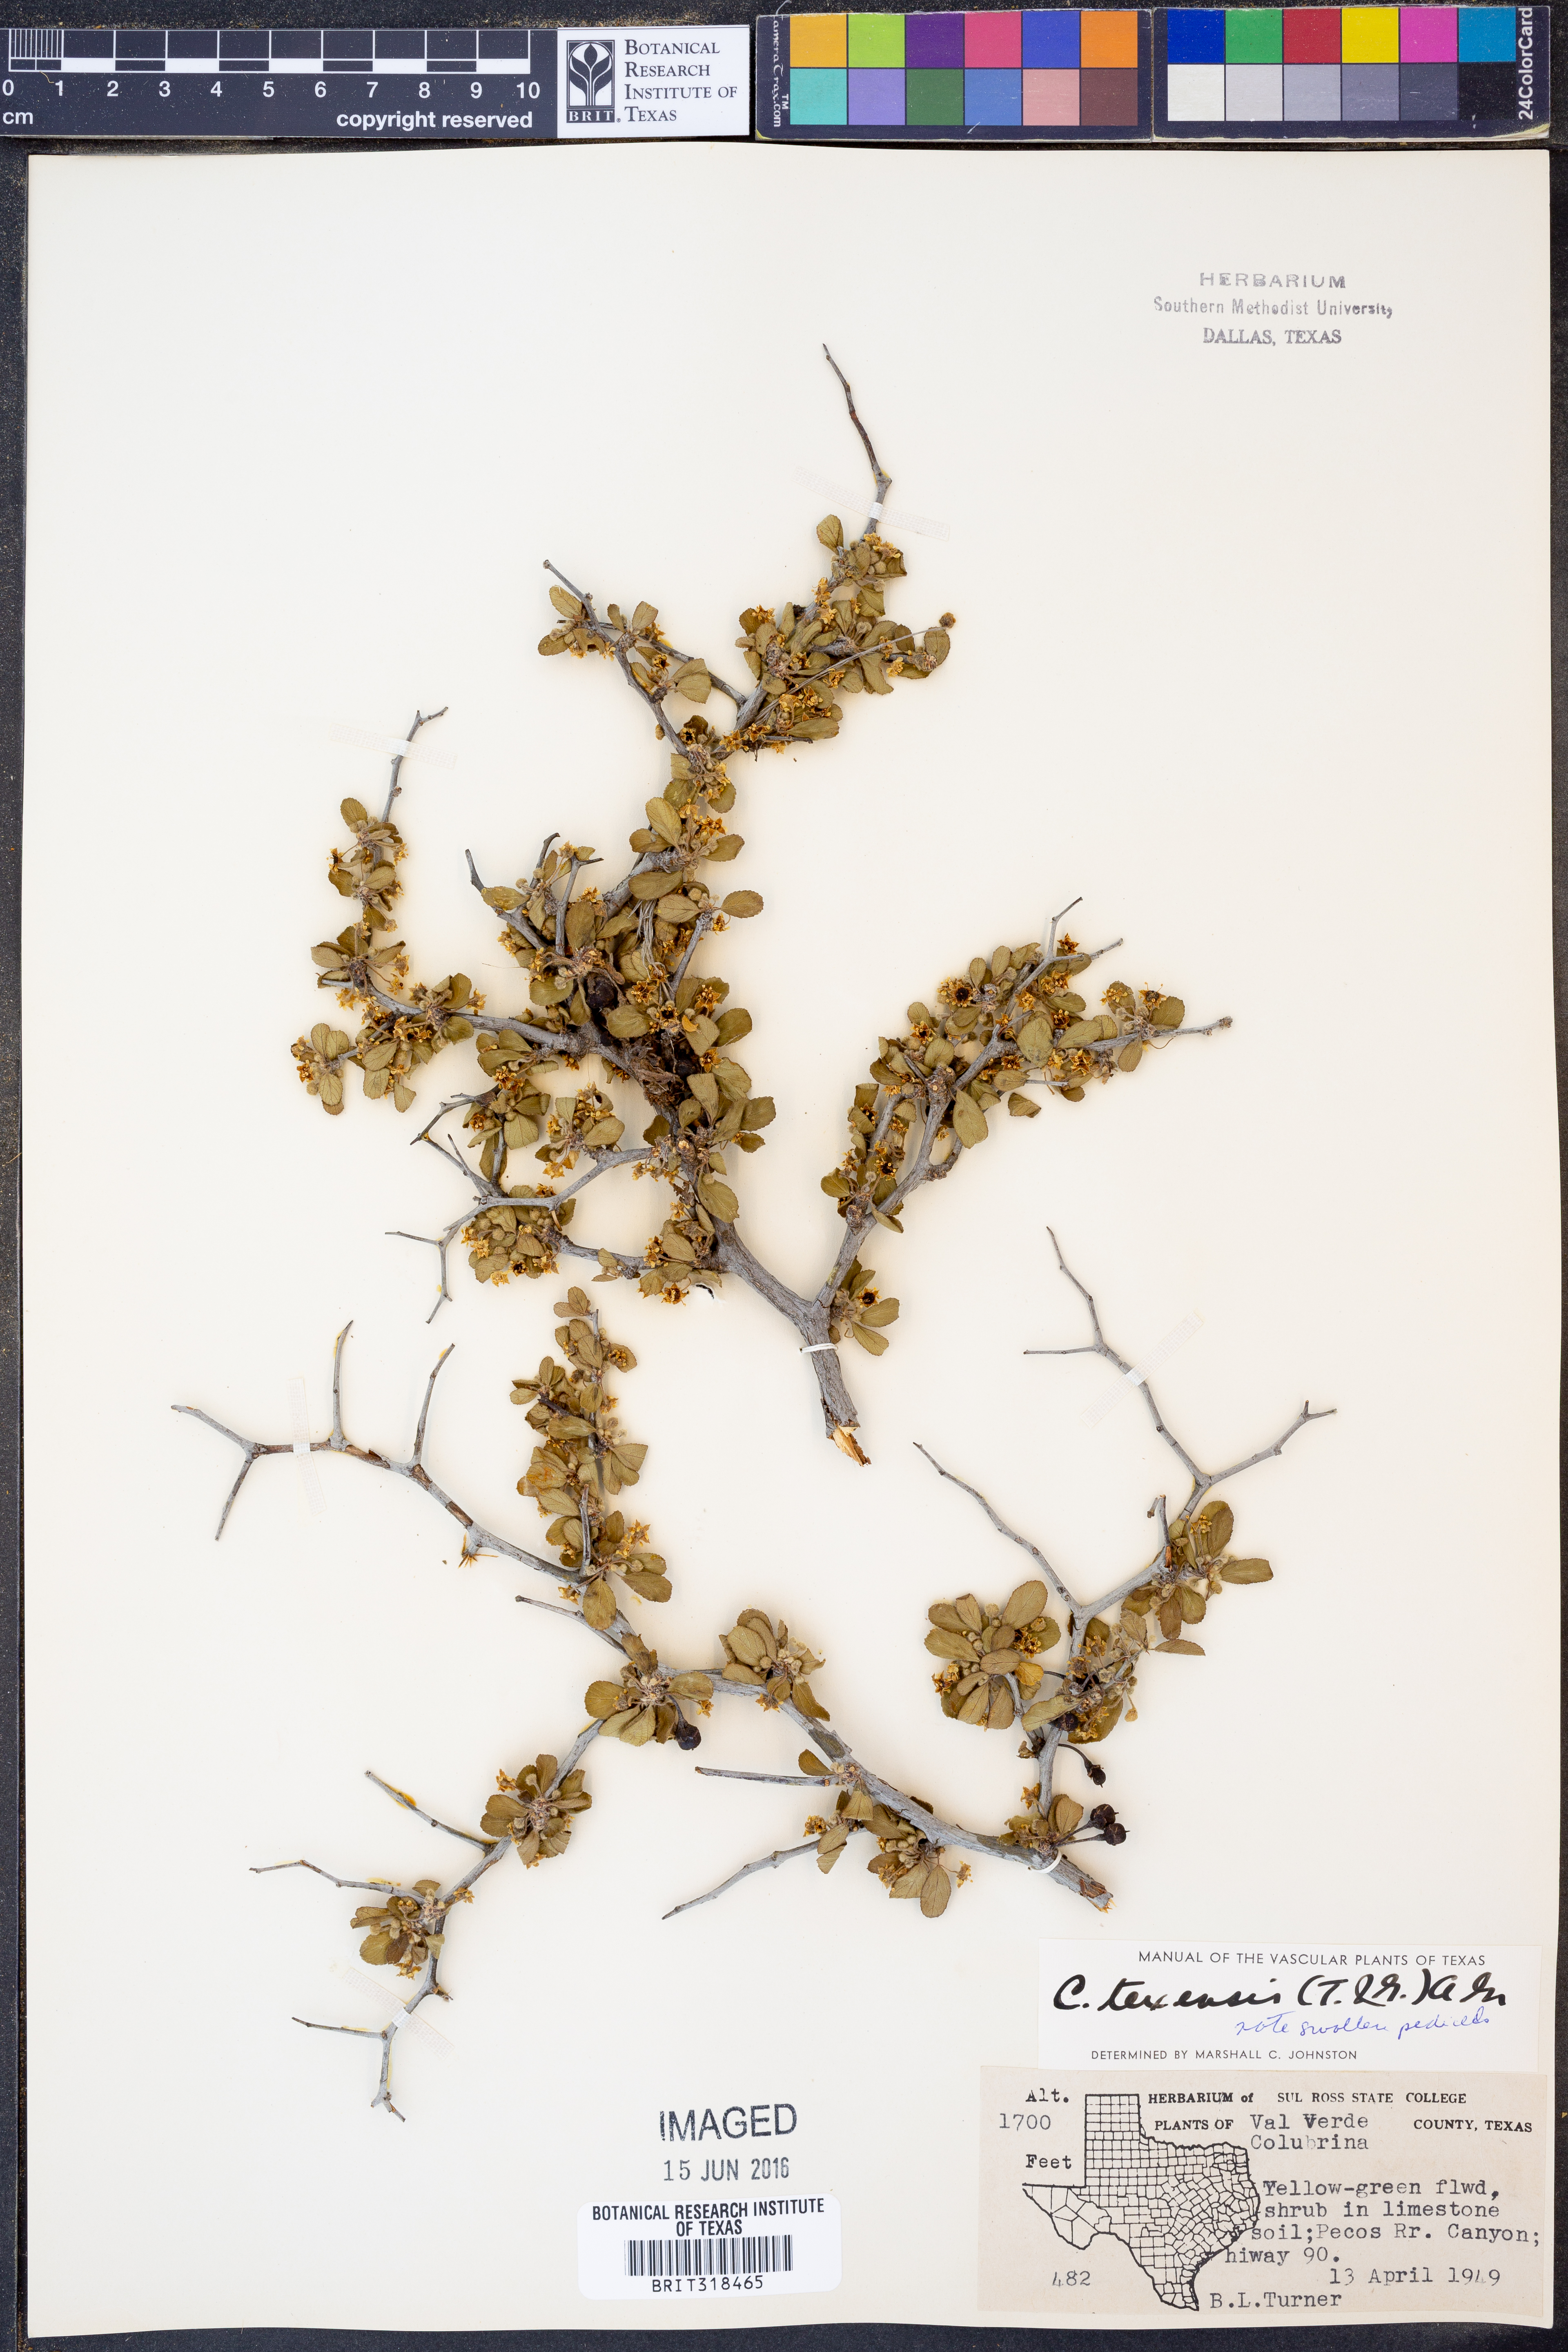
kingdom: Plantae
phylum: Tracheophyta
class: Magnoliopsida
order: Rosales
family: Rhamnaceae
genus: Colubrina
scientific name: Colubrina texensis
